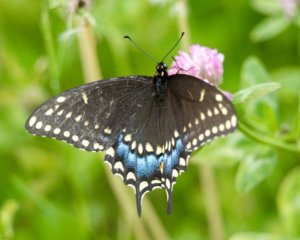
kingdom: Animalia
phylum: Arthropoda
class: Insecta
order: Lepidoptera
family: Papilionidae
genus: Papilio
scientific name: Papilio polyxenes
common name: Black Swallowtail
